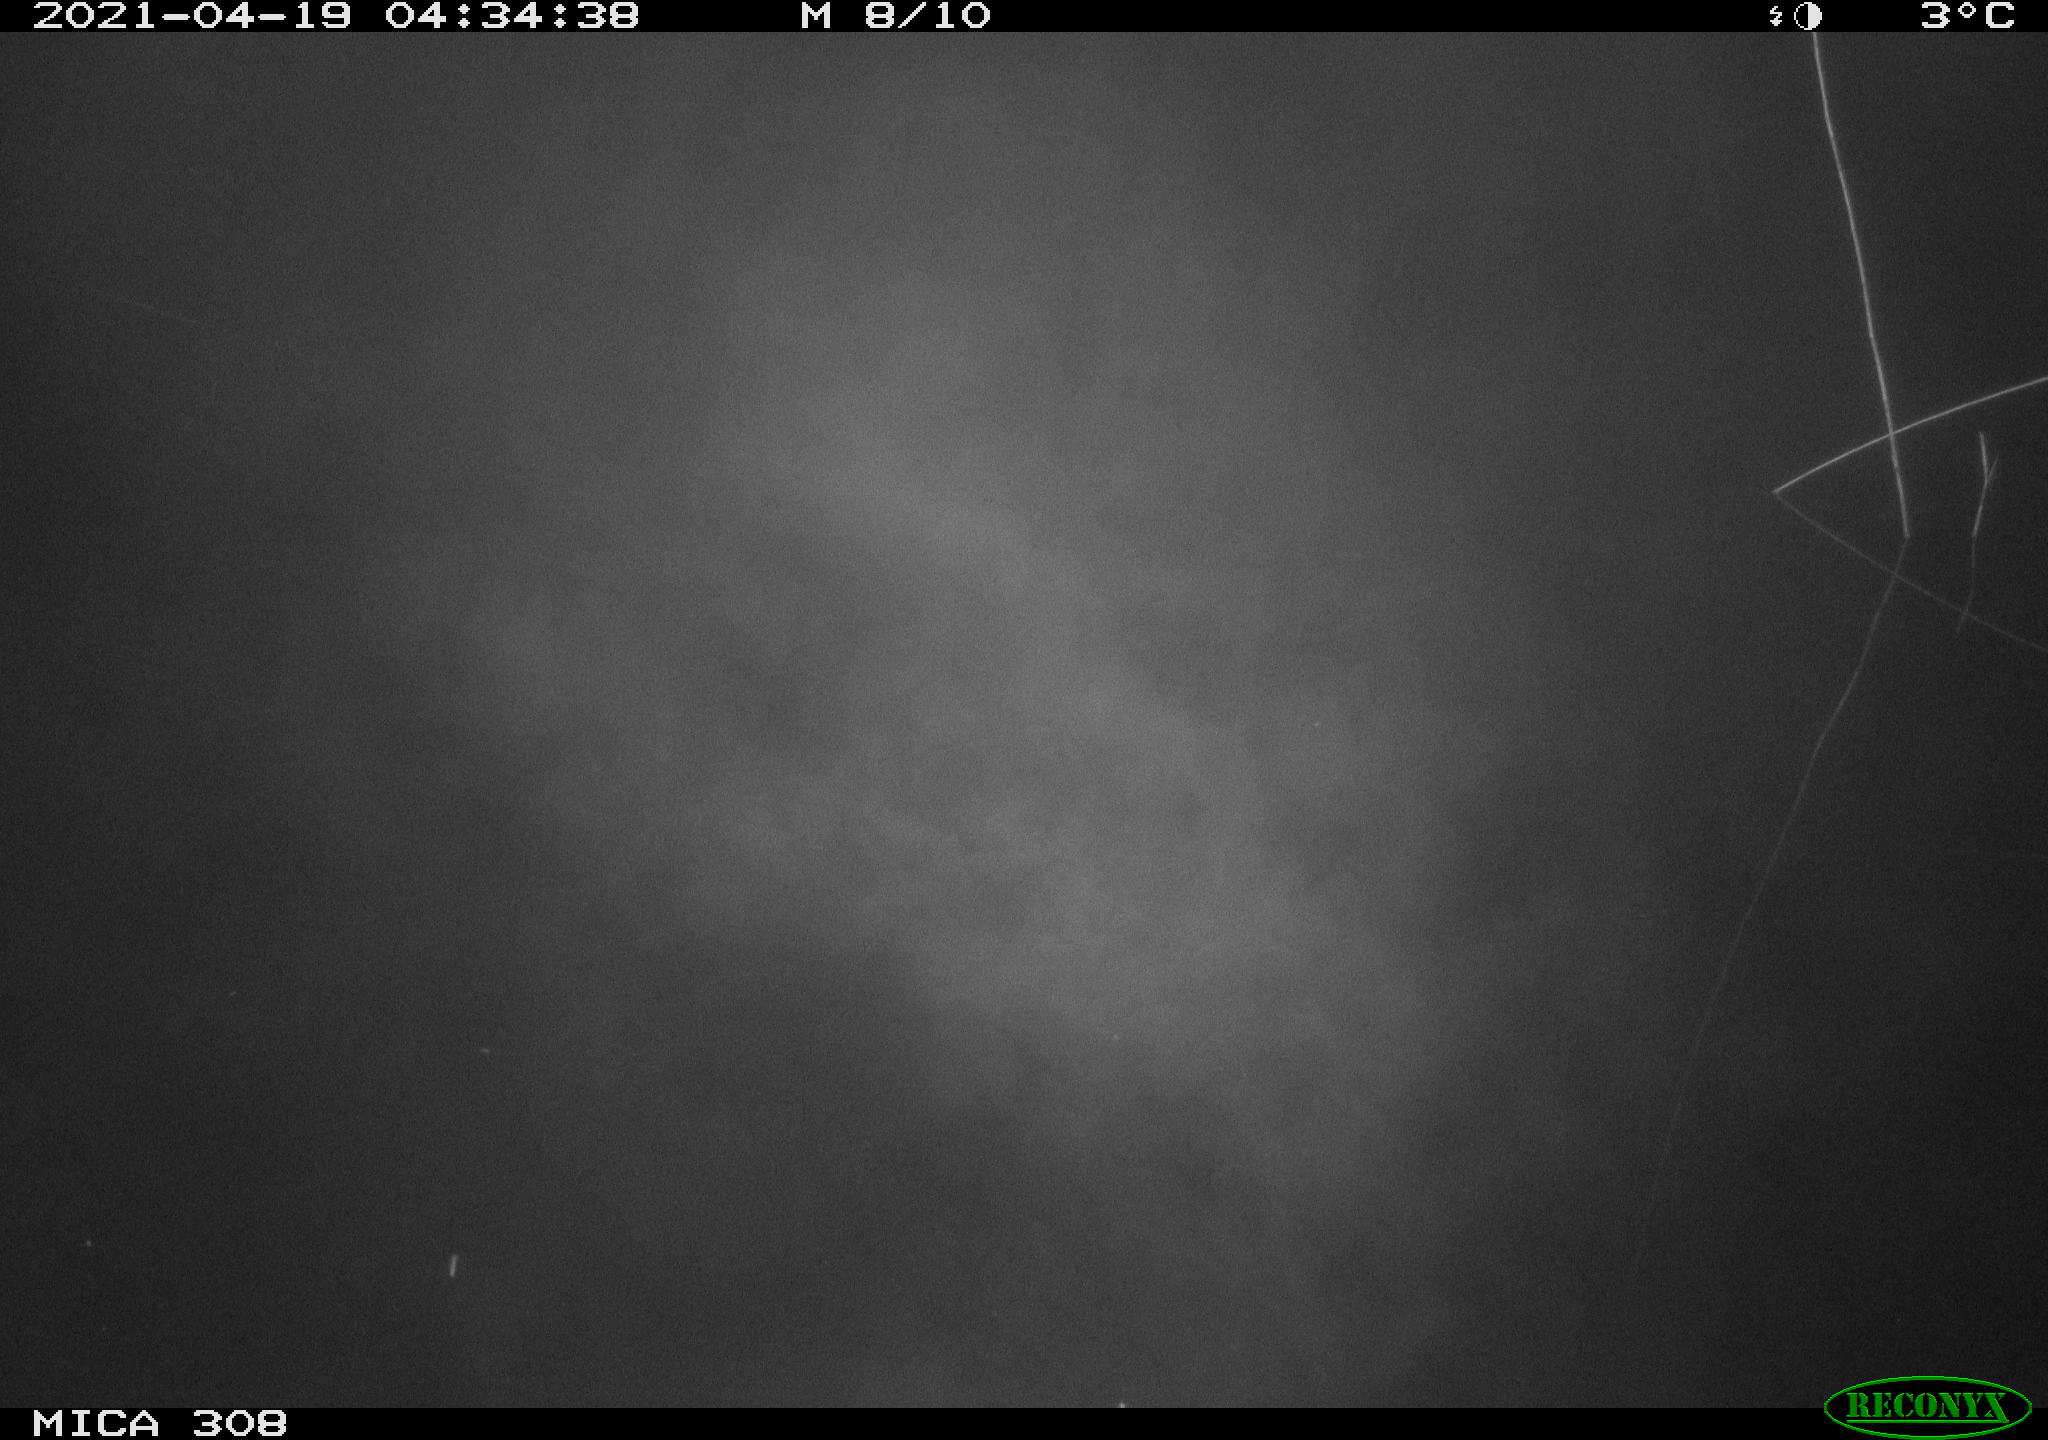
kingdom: Animalia
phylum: Chordata
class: Aves
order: Anseriformes
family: Anatidae
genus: Anas
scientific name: Anas platyrhynchos
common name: Mallard
